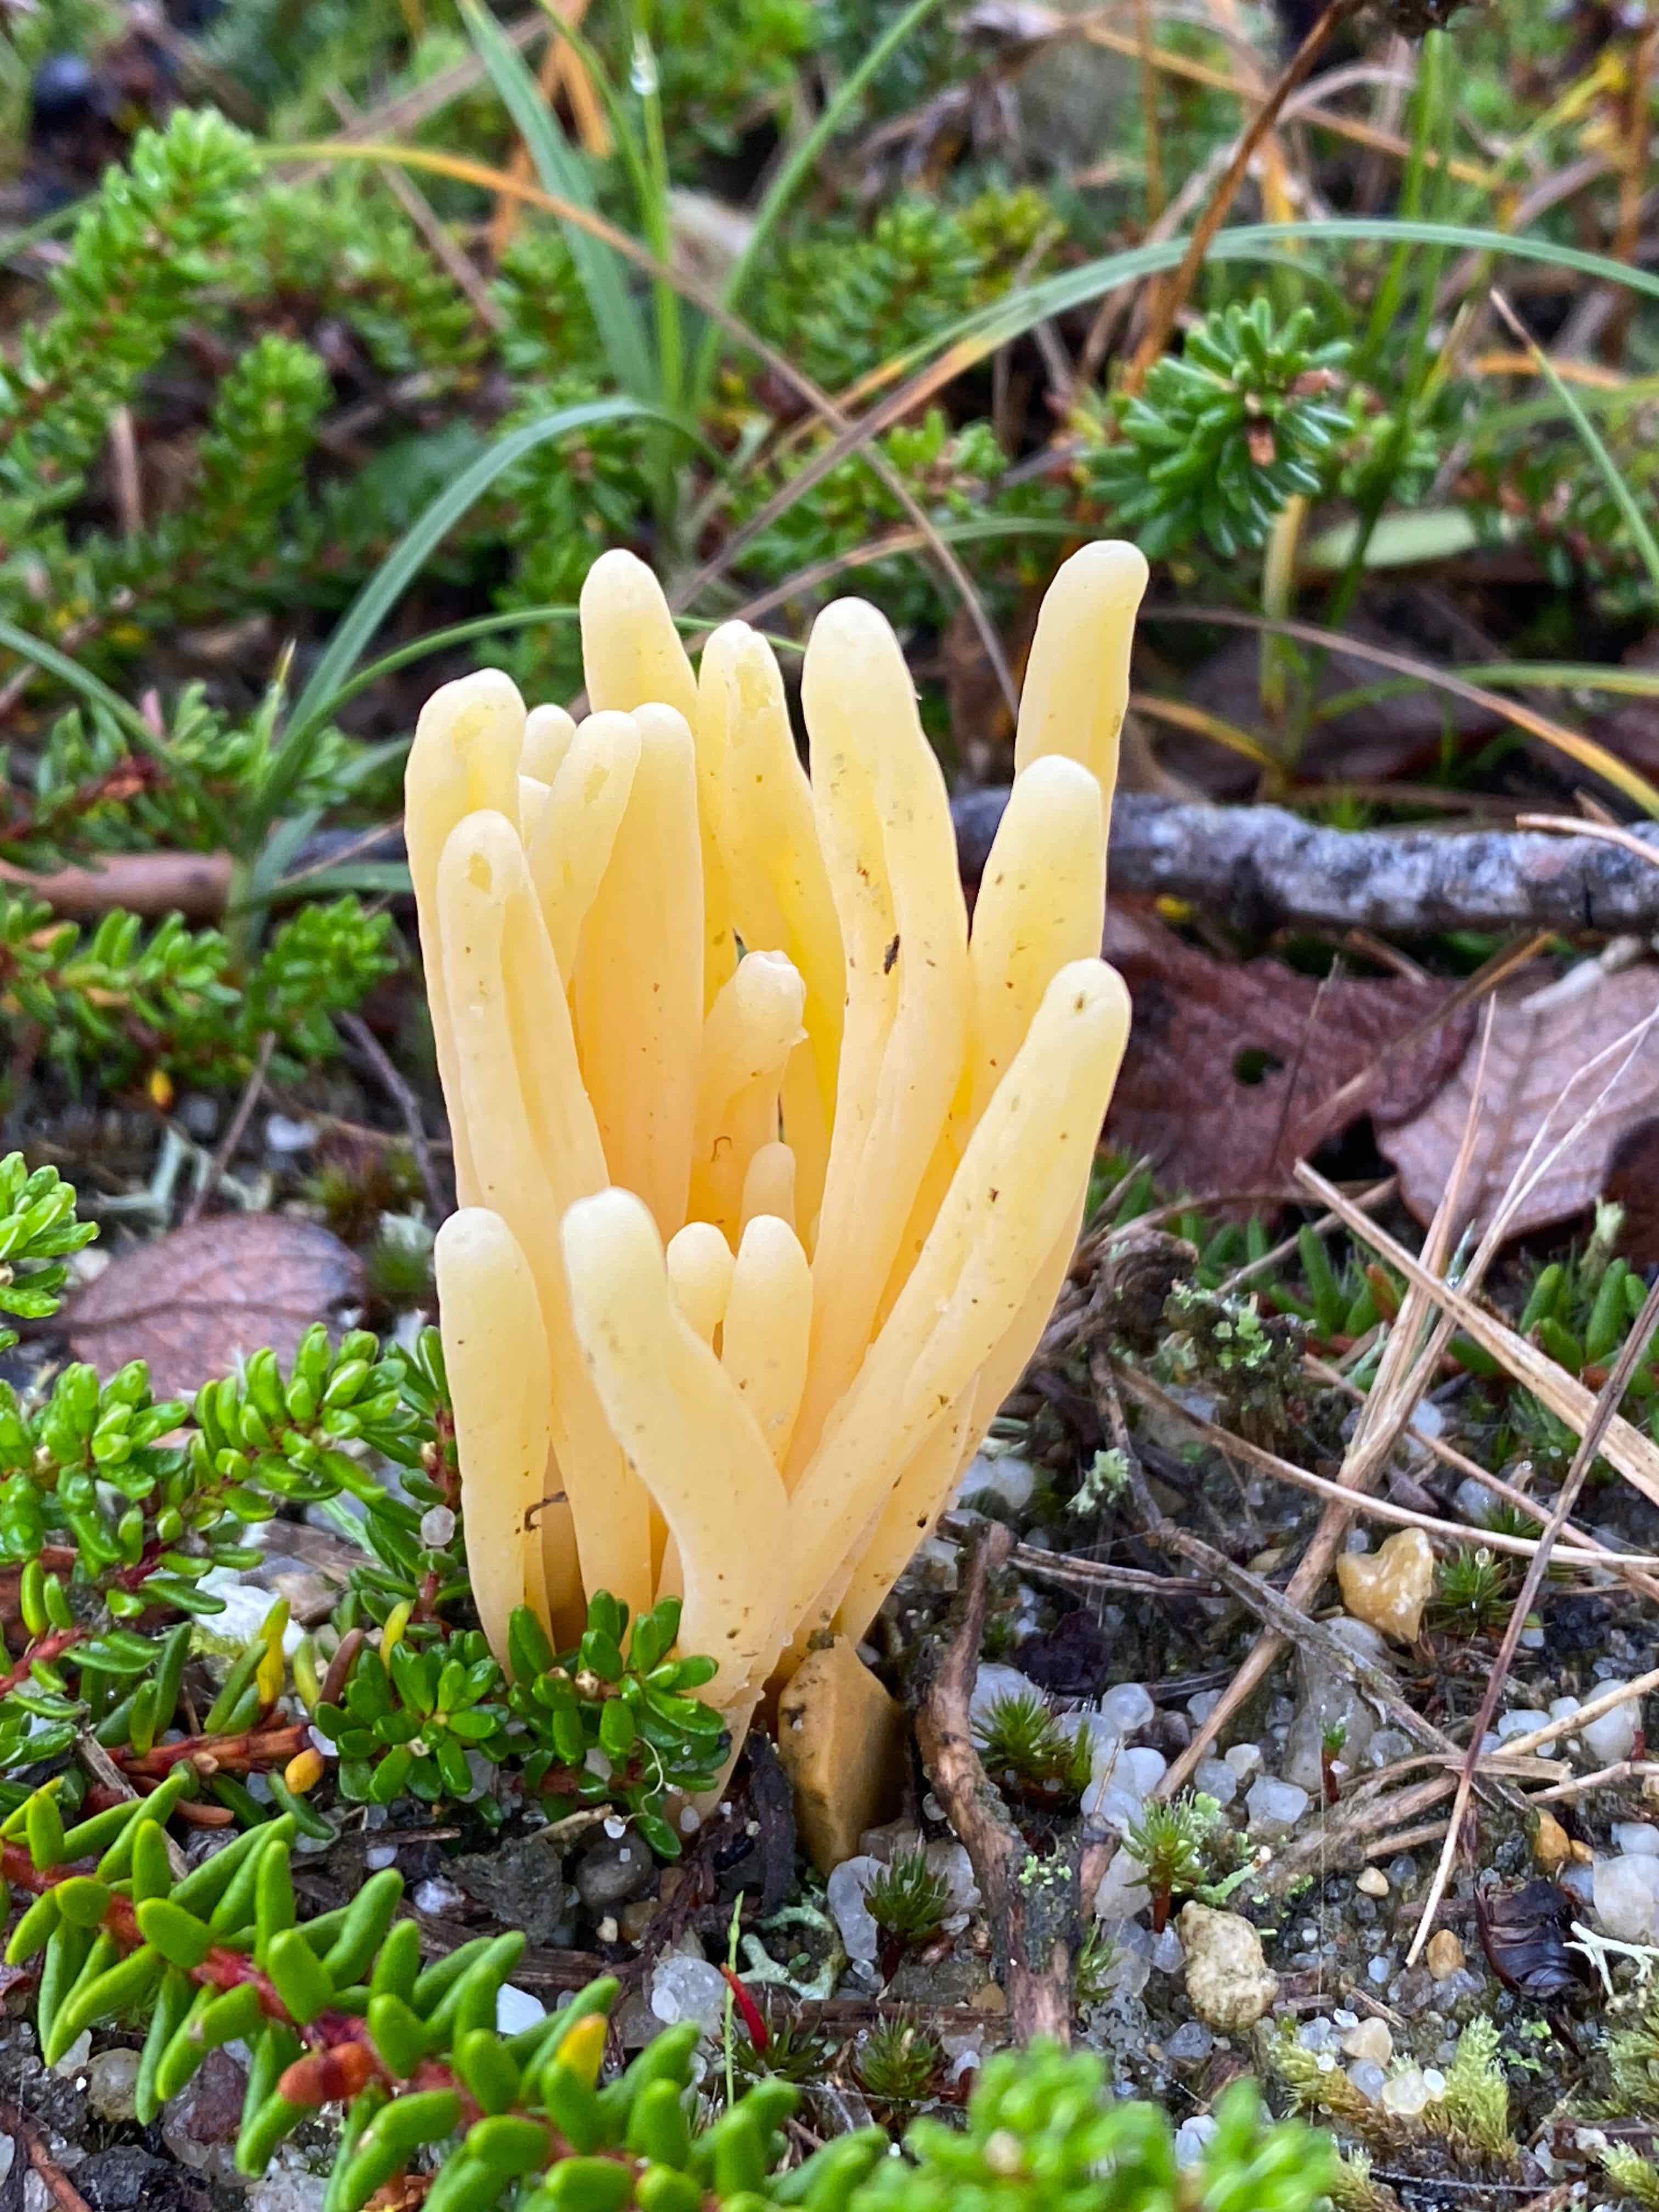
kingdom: Fungi
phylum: Basidiomycota
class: Agaricomycetes
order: Agaricales
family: Clavariaceae
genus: Clavaria
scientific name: Clavaria argillacea
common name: lerfarvet køllesvamp
